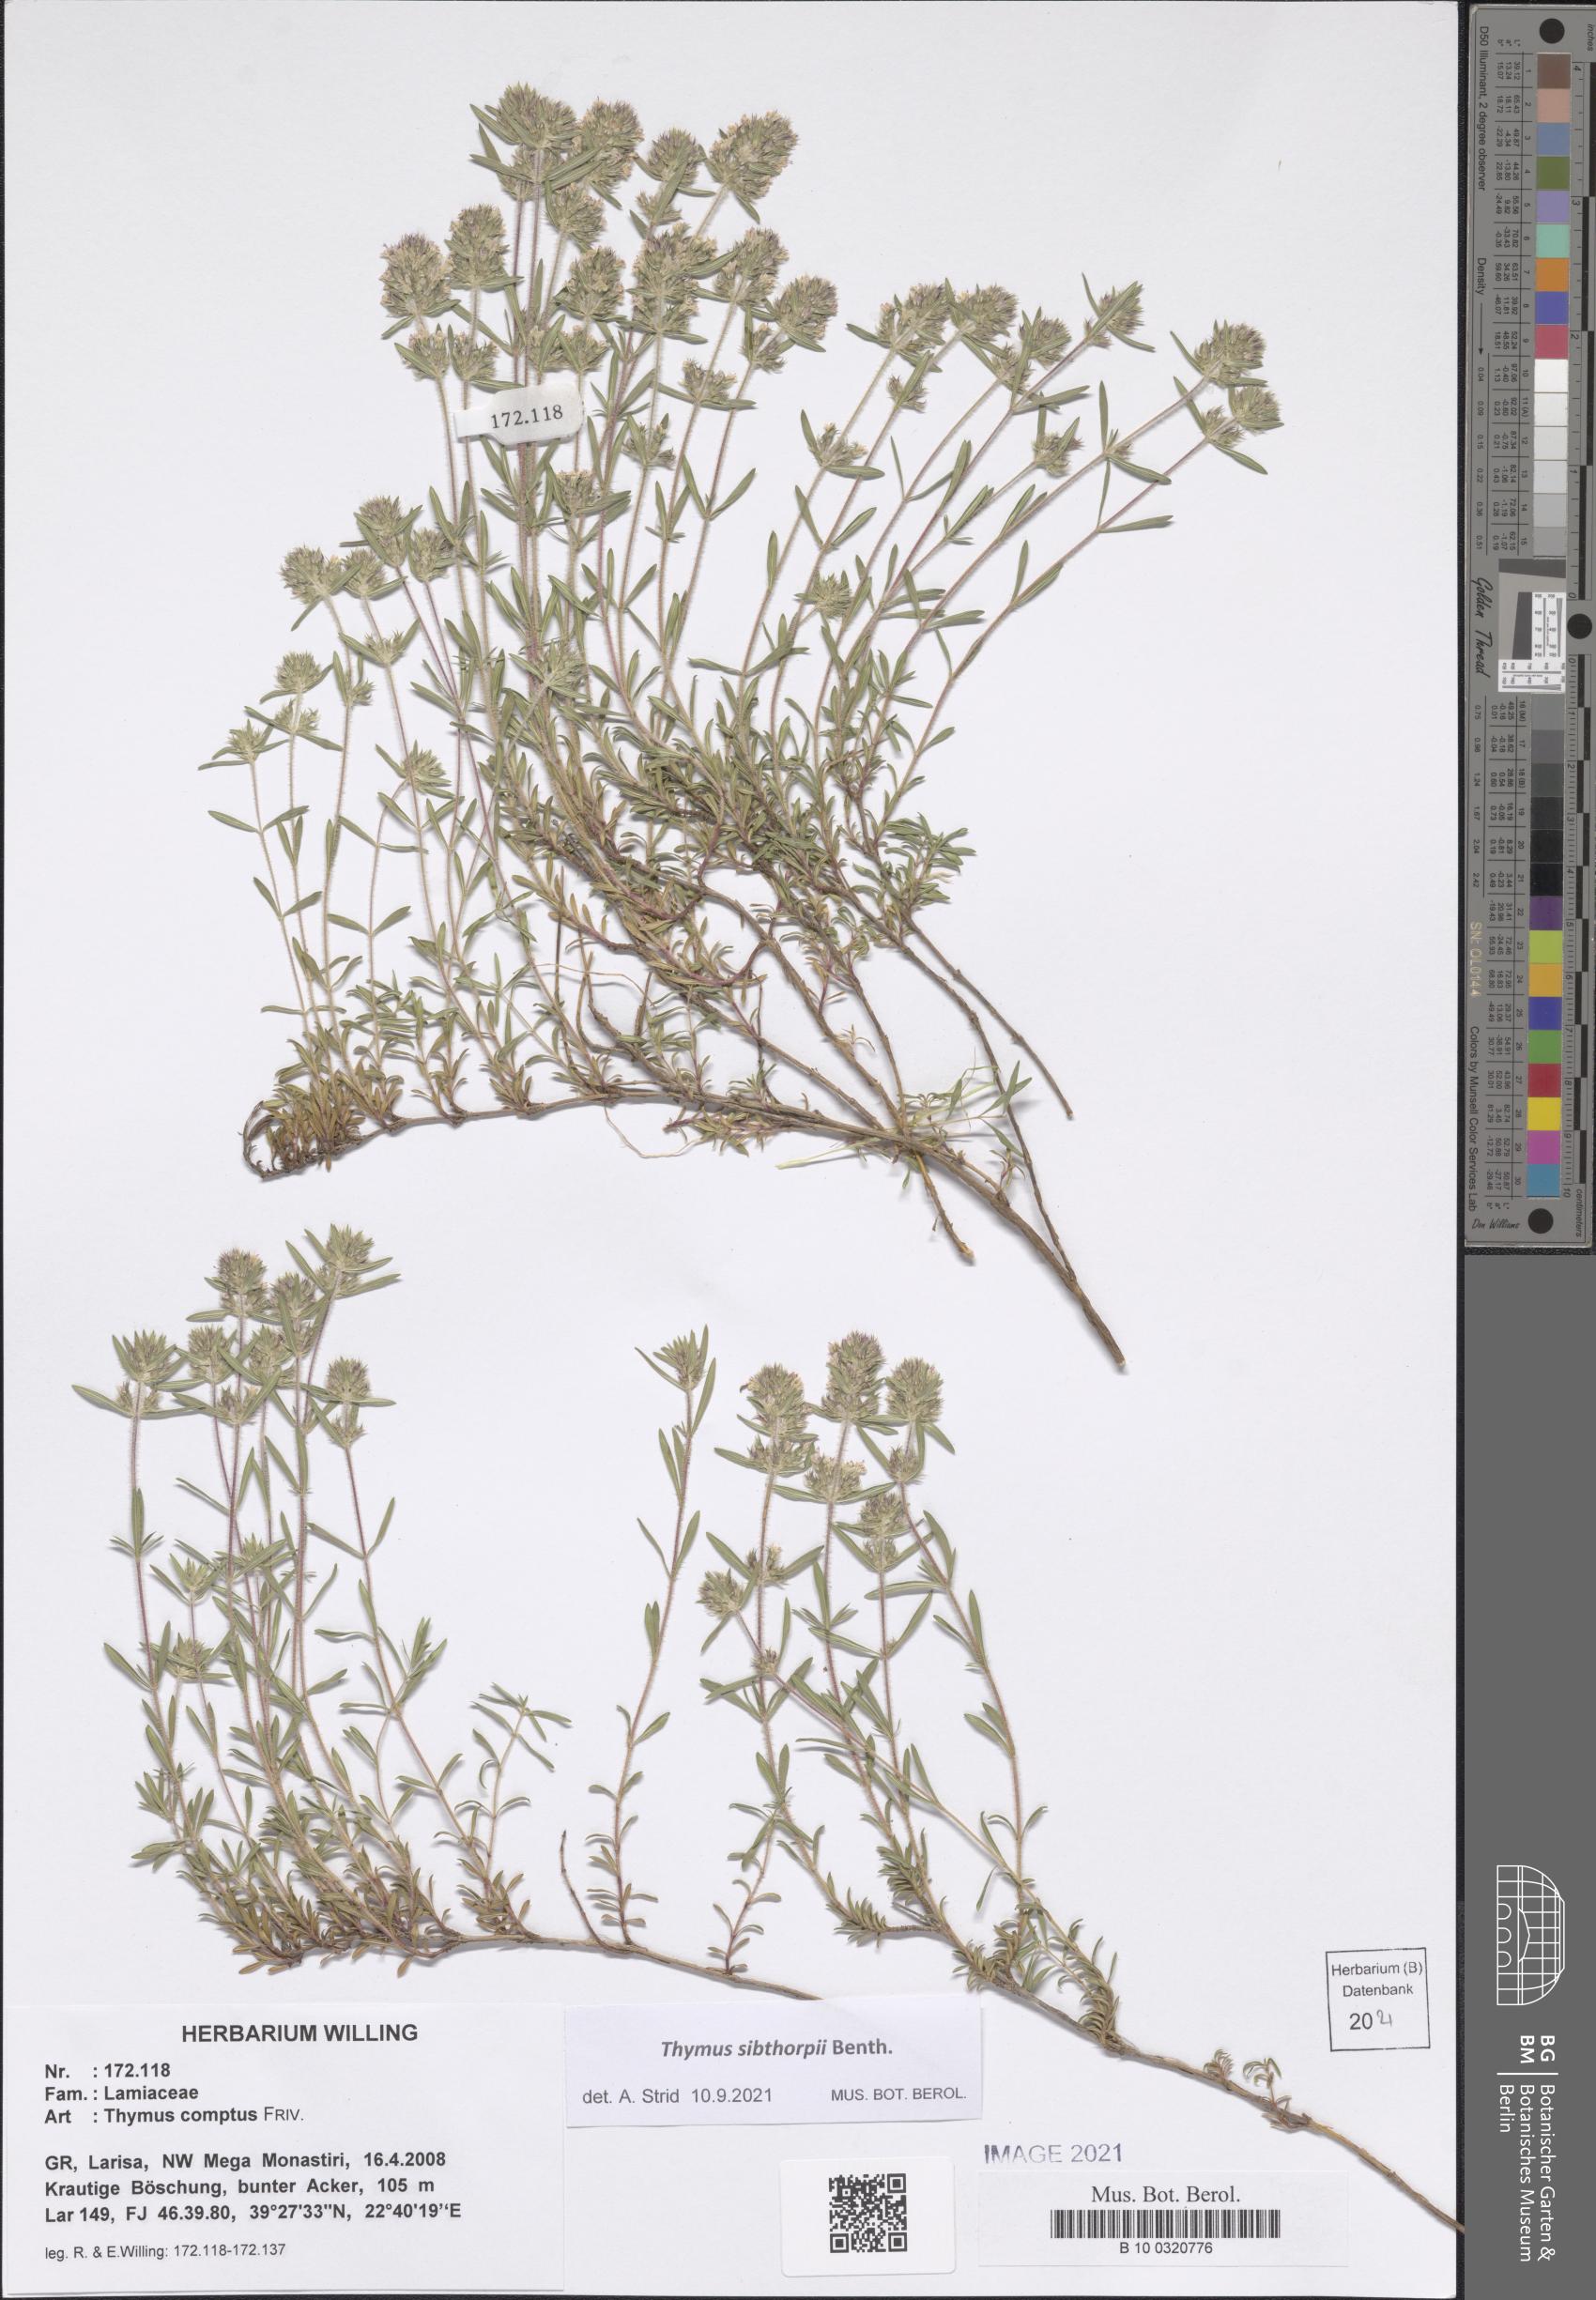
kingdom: Plantae
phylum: Tracheophyta
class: Magnoliopsida
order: Lamiales
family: Lamiaceae
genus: Thymus
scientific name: Thymus sibthorpii
